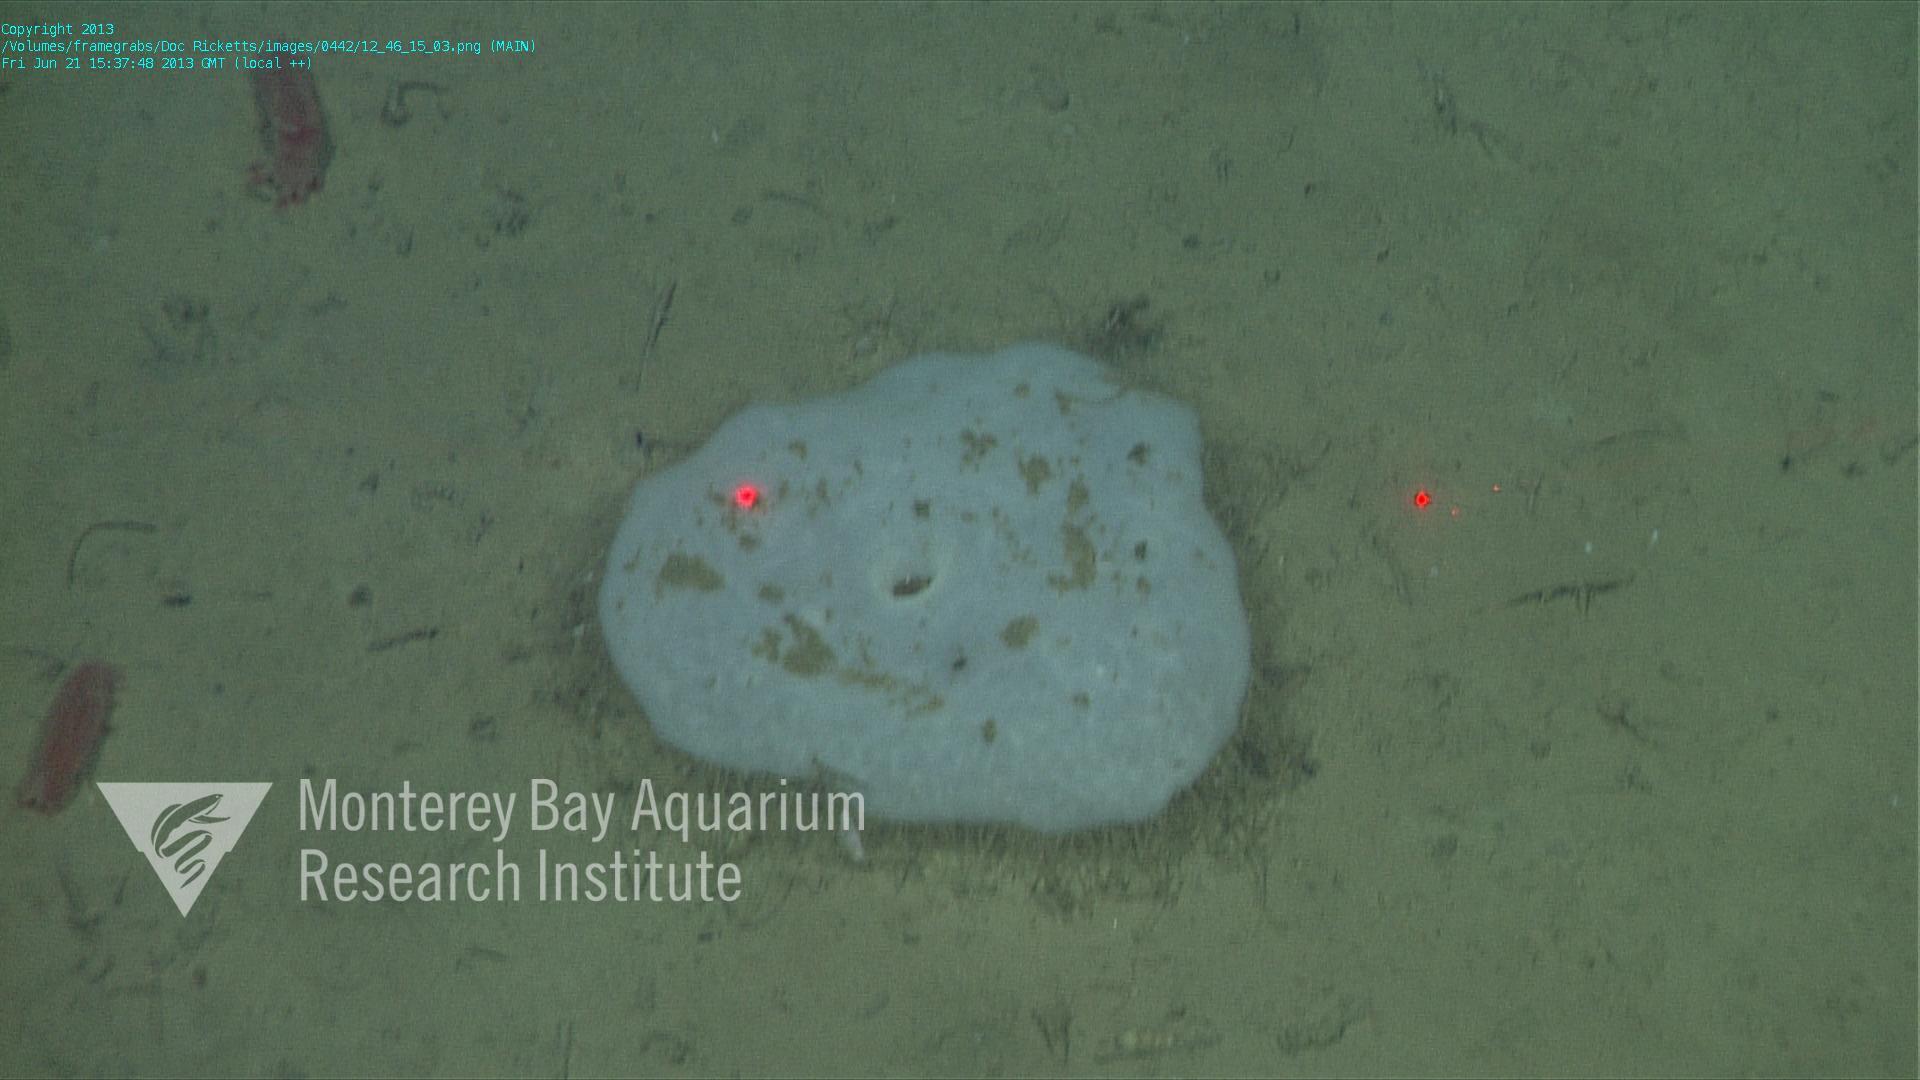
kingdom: Animalia
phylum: Porifera
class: Hexactinellida
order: Lyssacinosida
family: Rossellidae
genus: Bathydorus
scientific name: Bathydorus laniger
